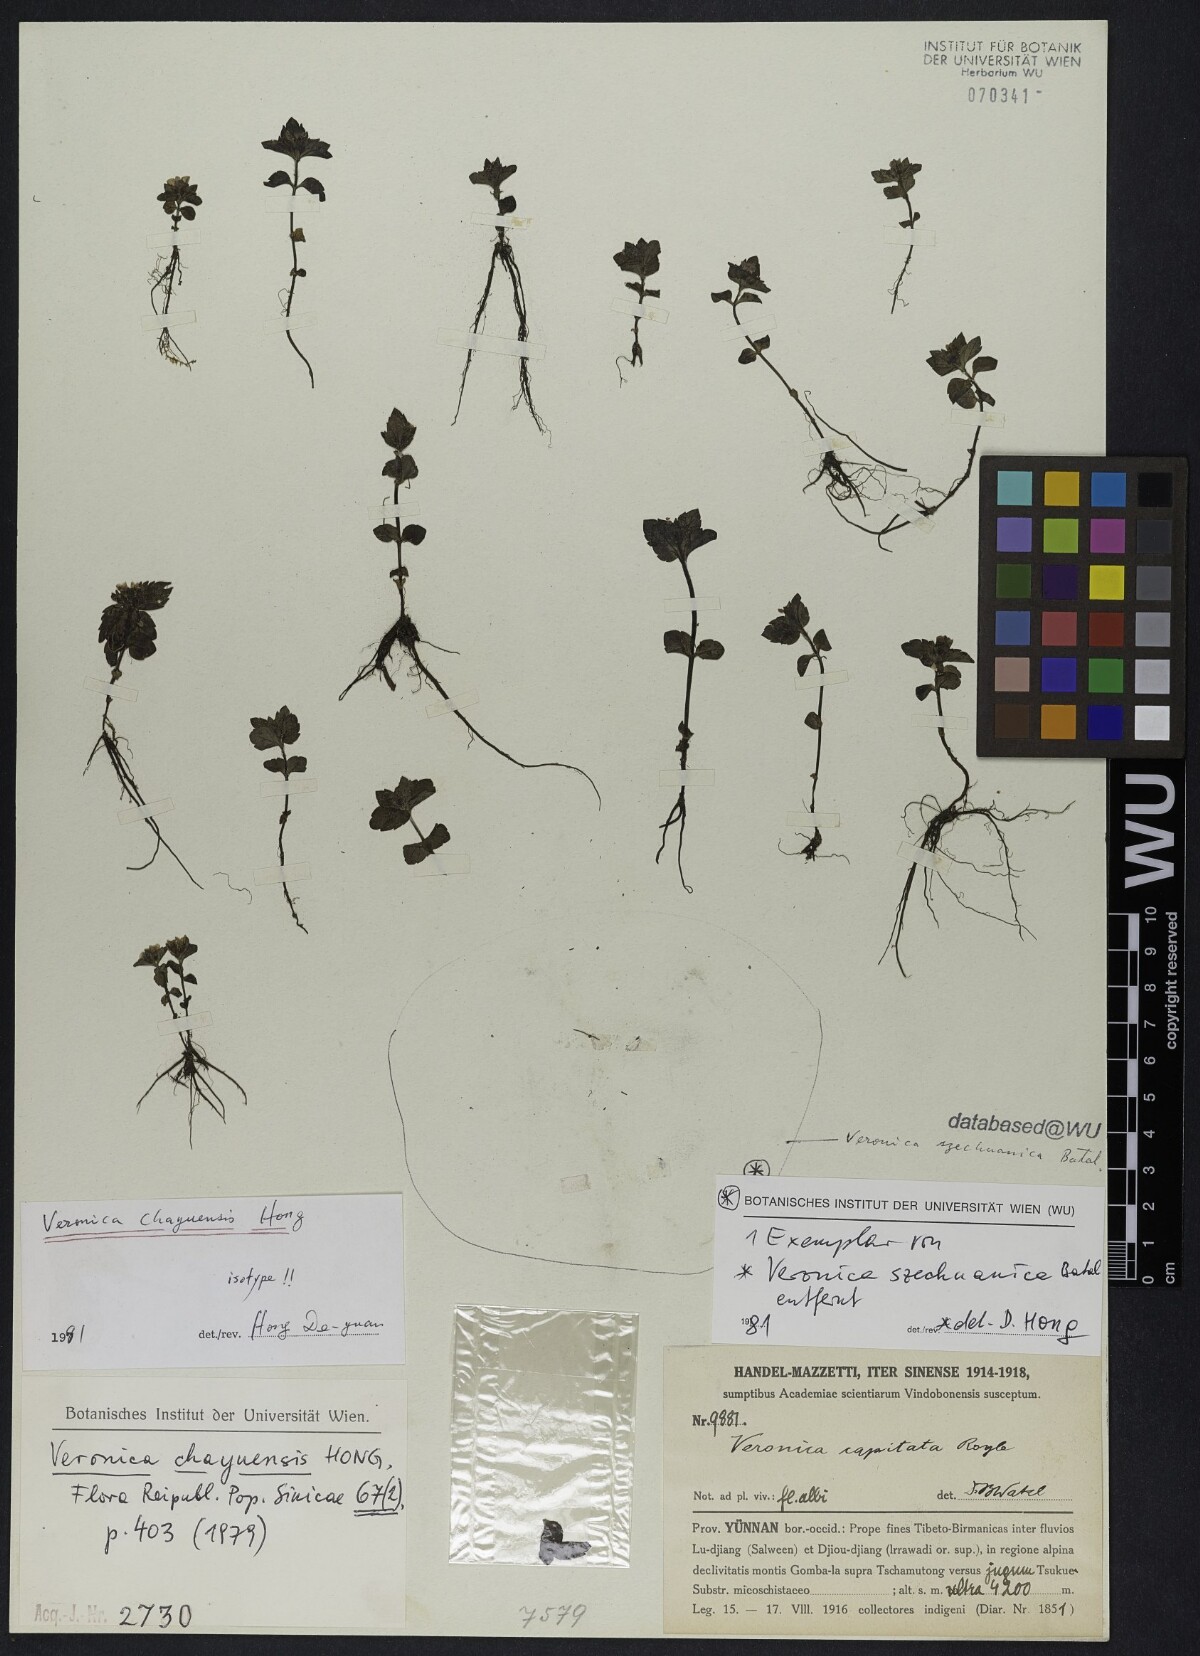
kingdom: Plantae
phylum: Tracheophyta
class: Magnoliopsida
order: Lamiales
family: Plantaginaceae
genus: Veronica
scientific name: Veronica chayuensis
